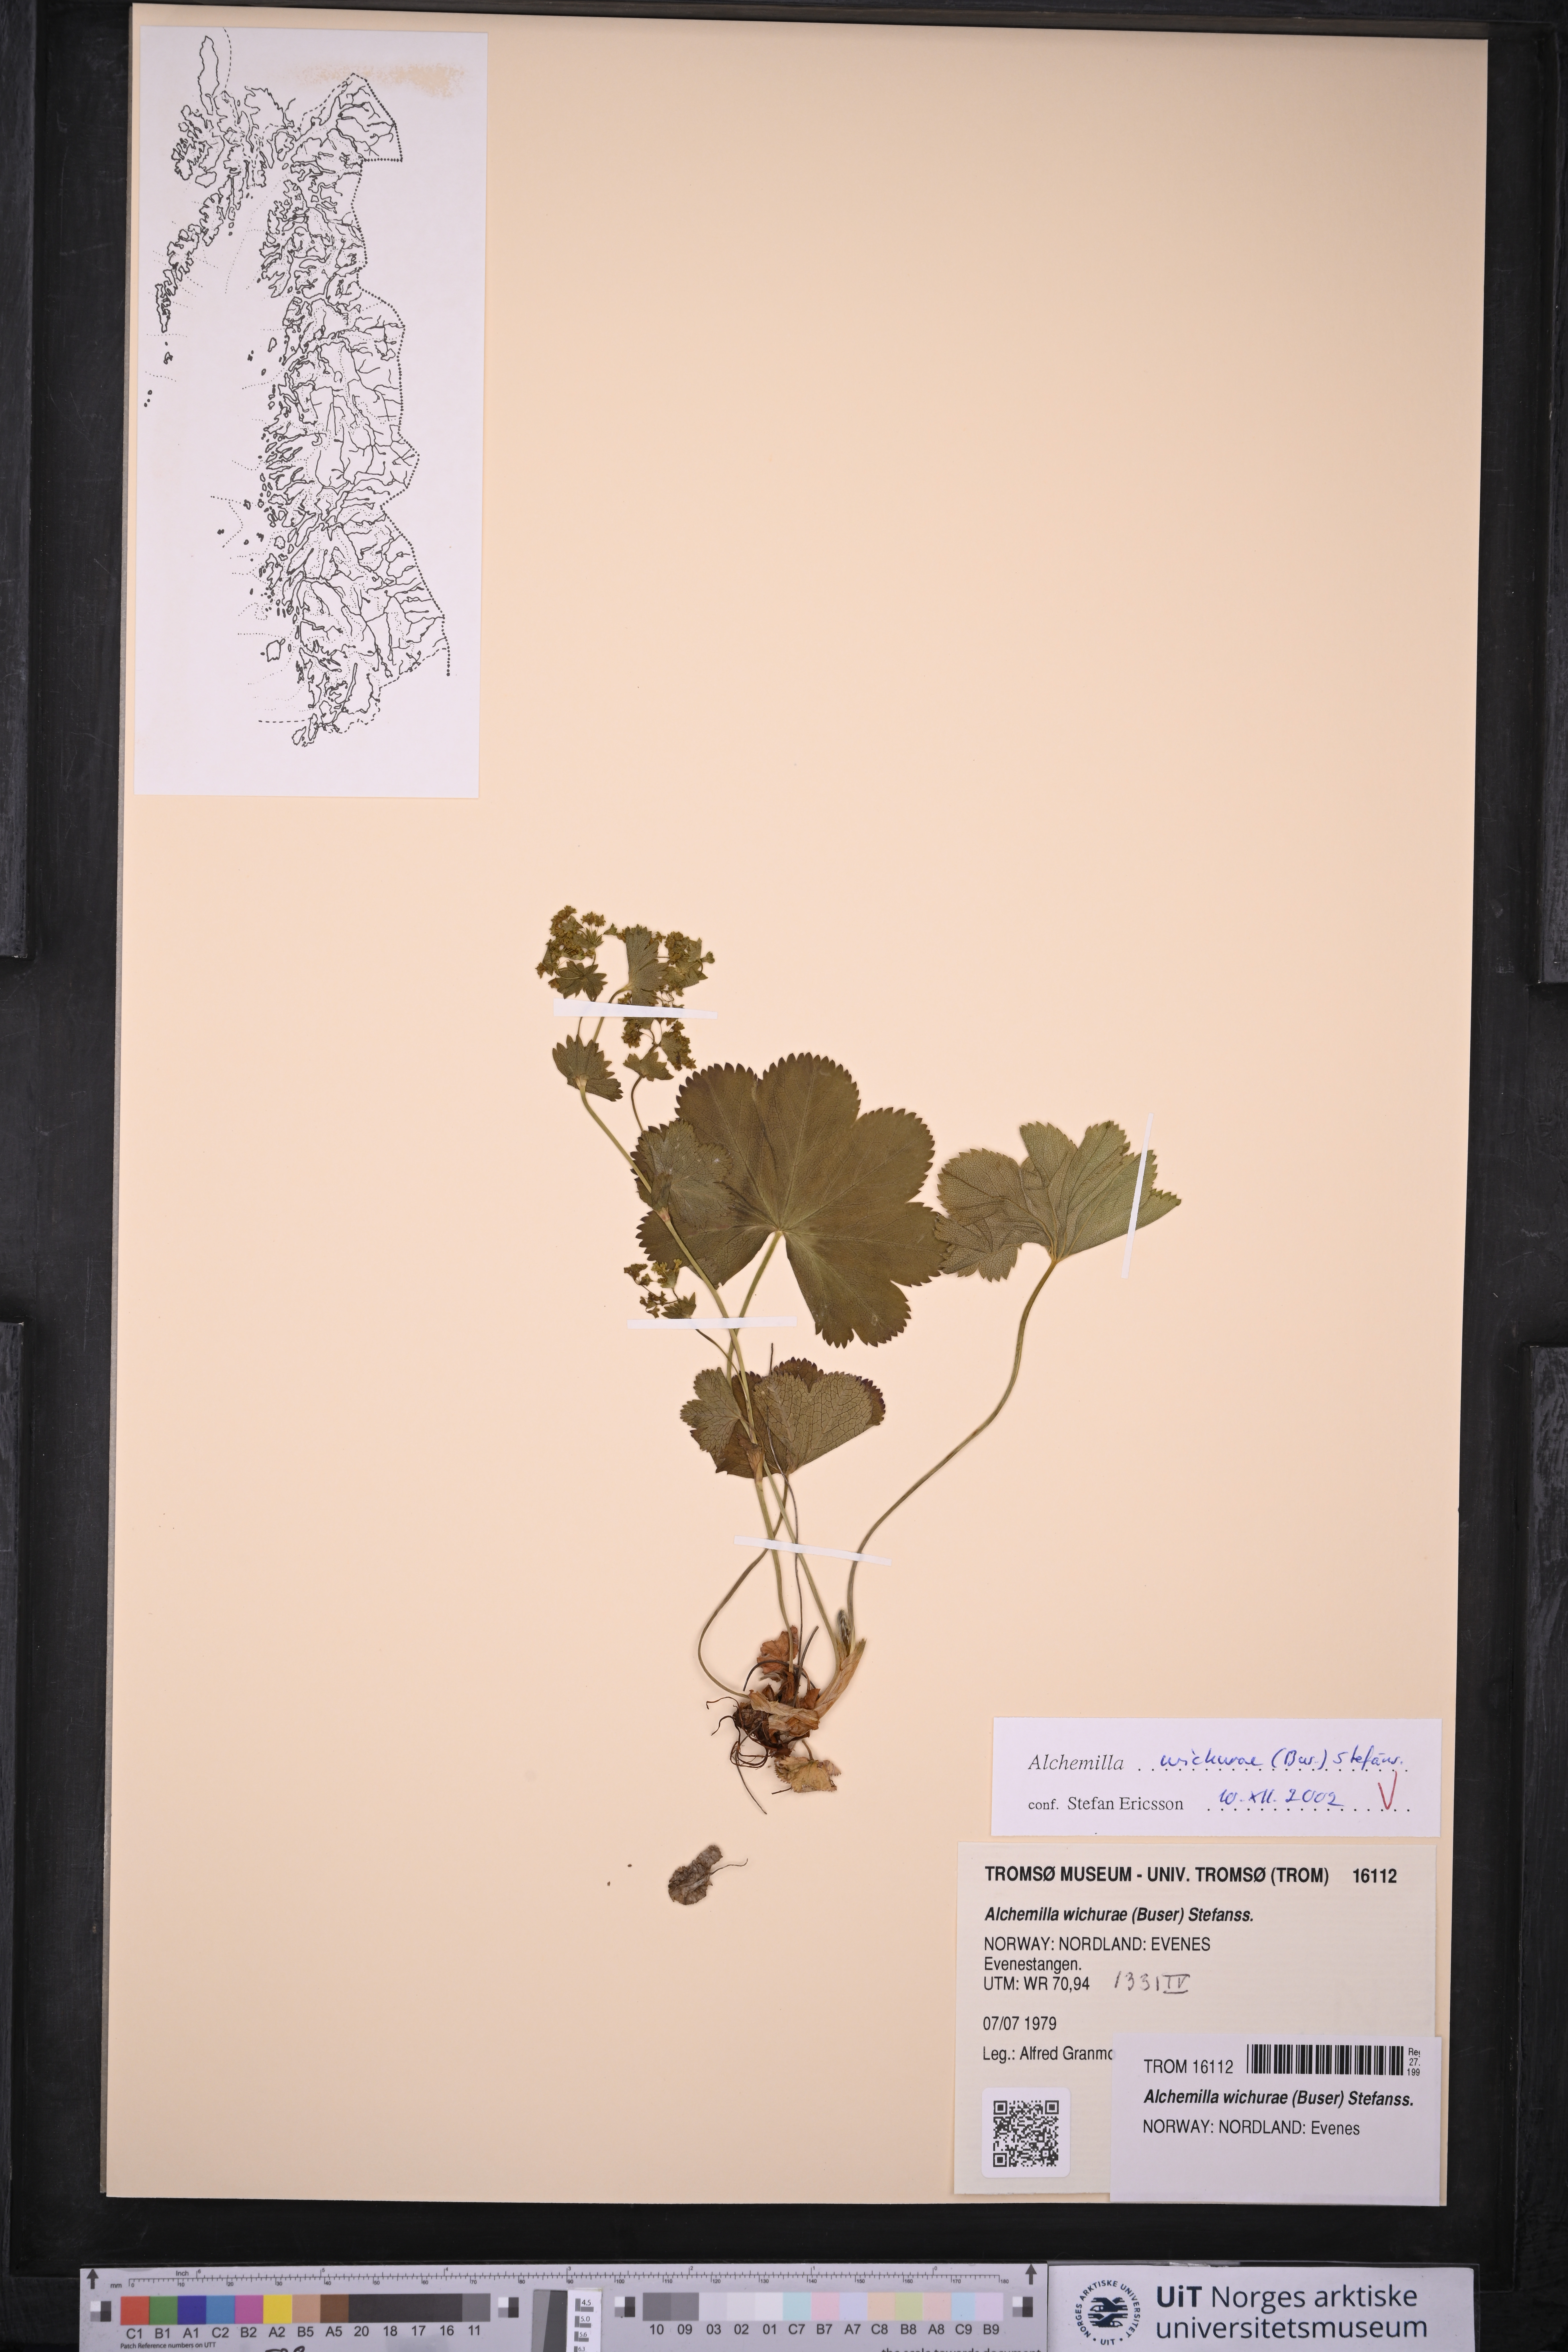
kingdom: Plantae
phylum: Tracheophyta
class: Magnoliopsida
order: Rosales
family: Rosaceae
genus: Alchemilla
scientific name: Alchemilla wichurae
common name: Rock lady's mantle
